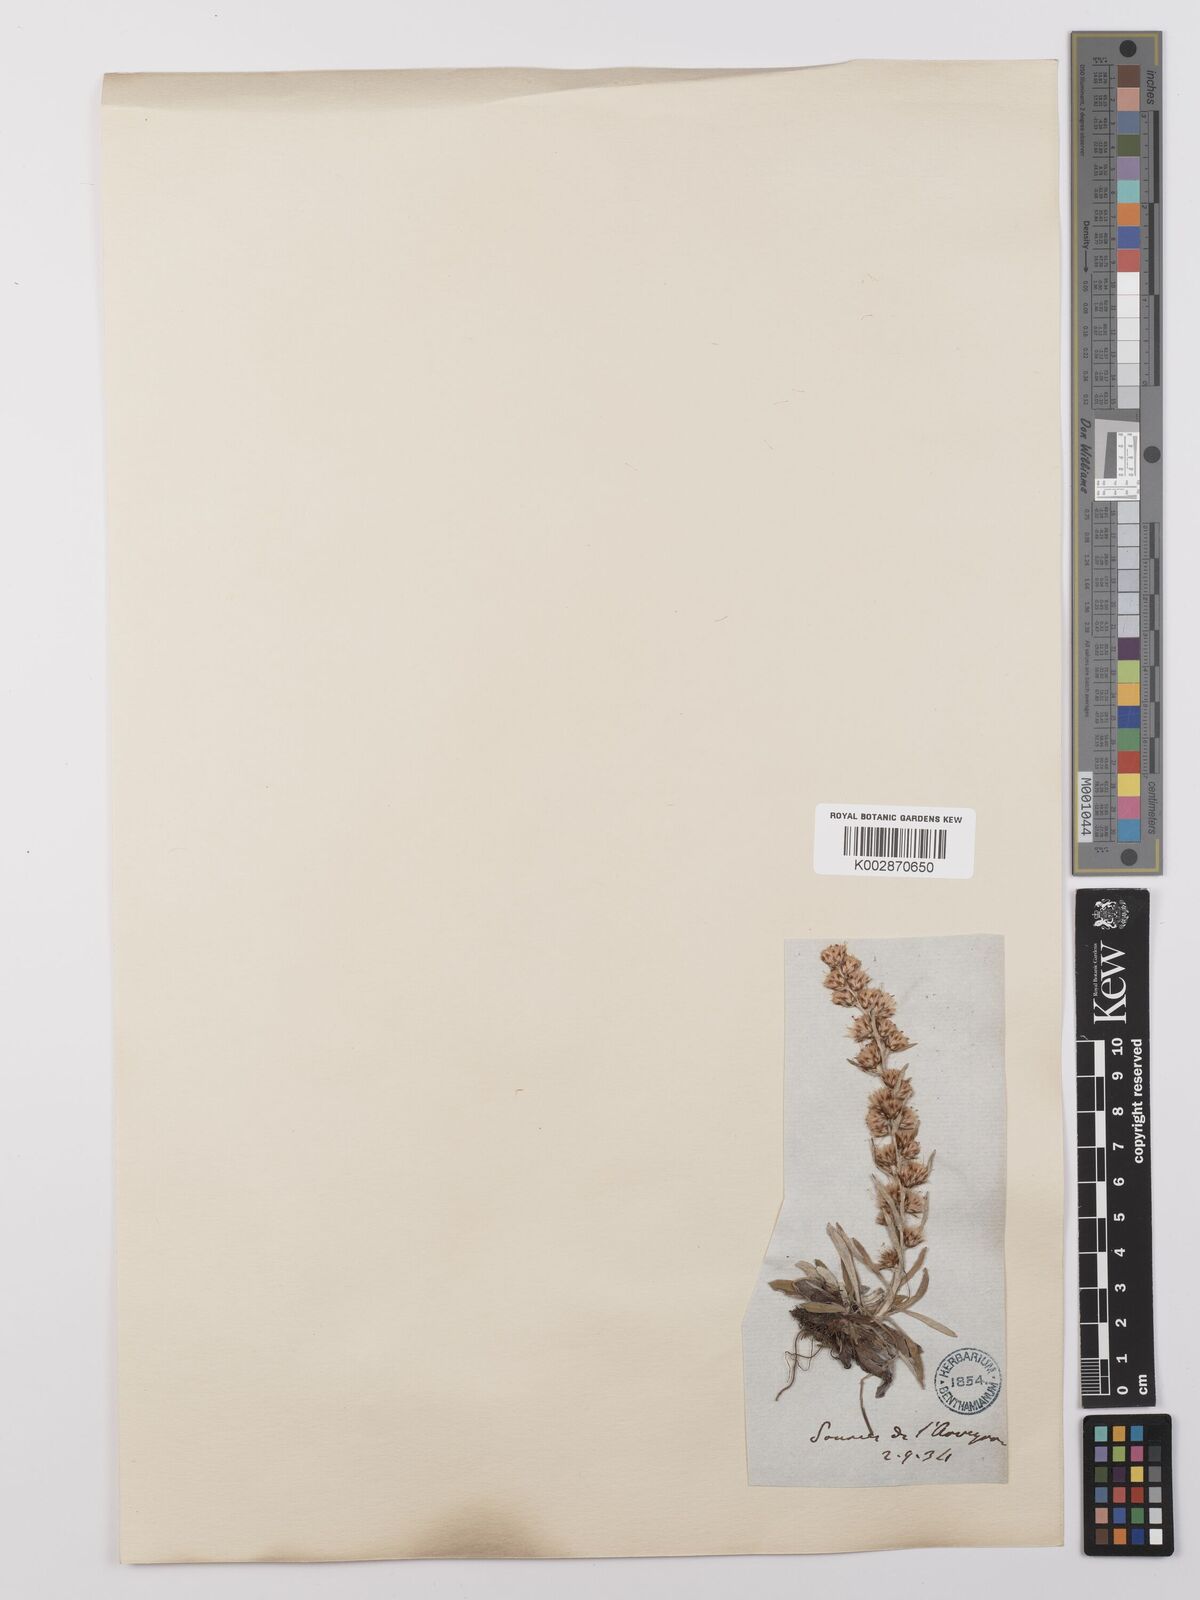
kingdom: Plantae
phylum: Tracheophyta
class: Magnoliopsida
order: Asterales
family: Asteraceae
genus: Omalotheca
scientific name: Omalotheca sylvatica
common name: Heath cudweed
